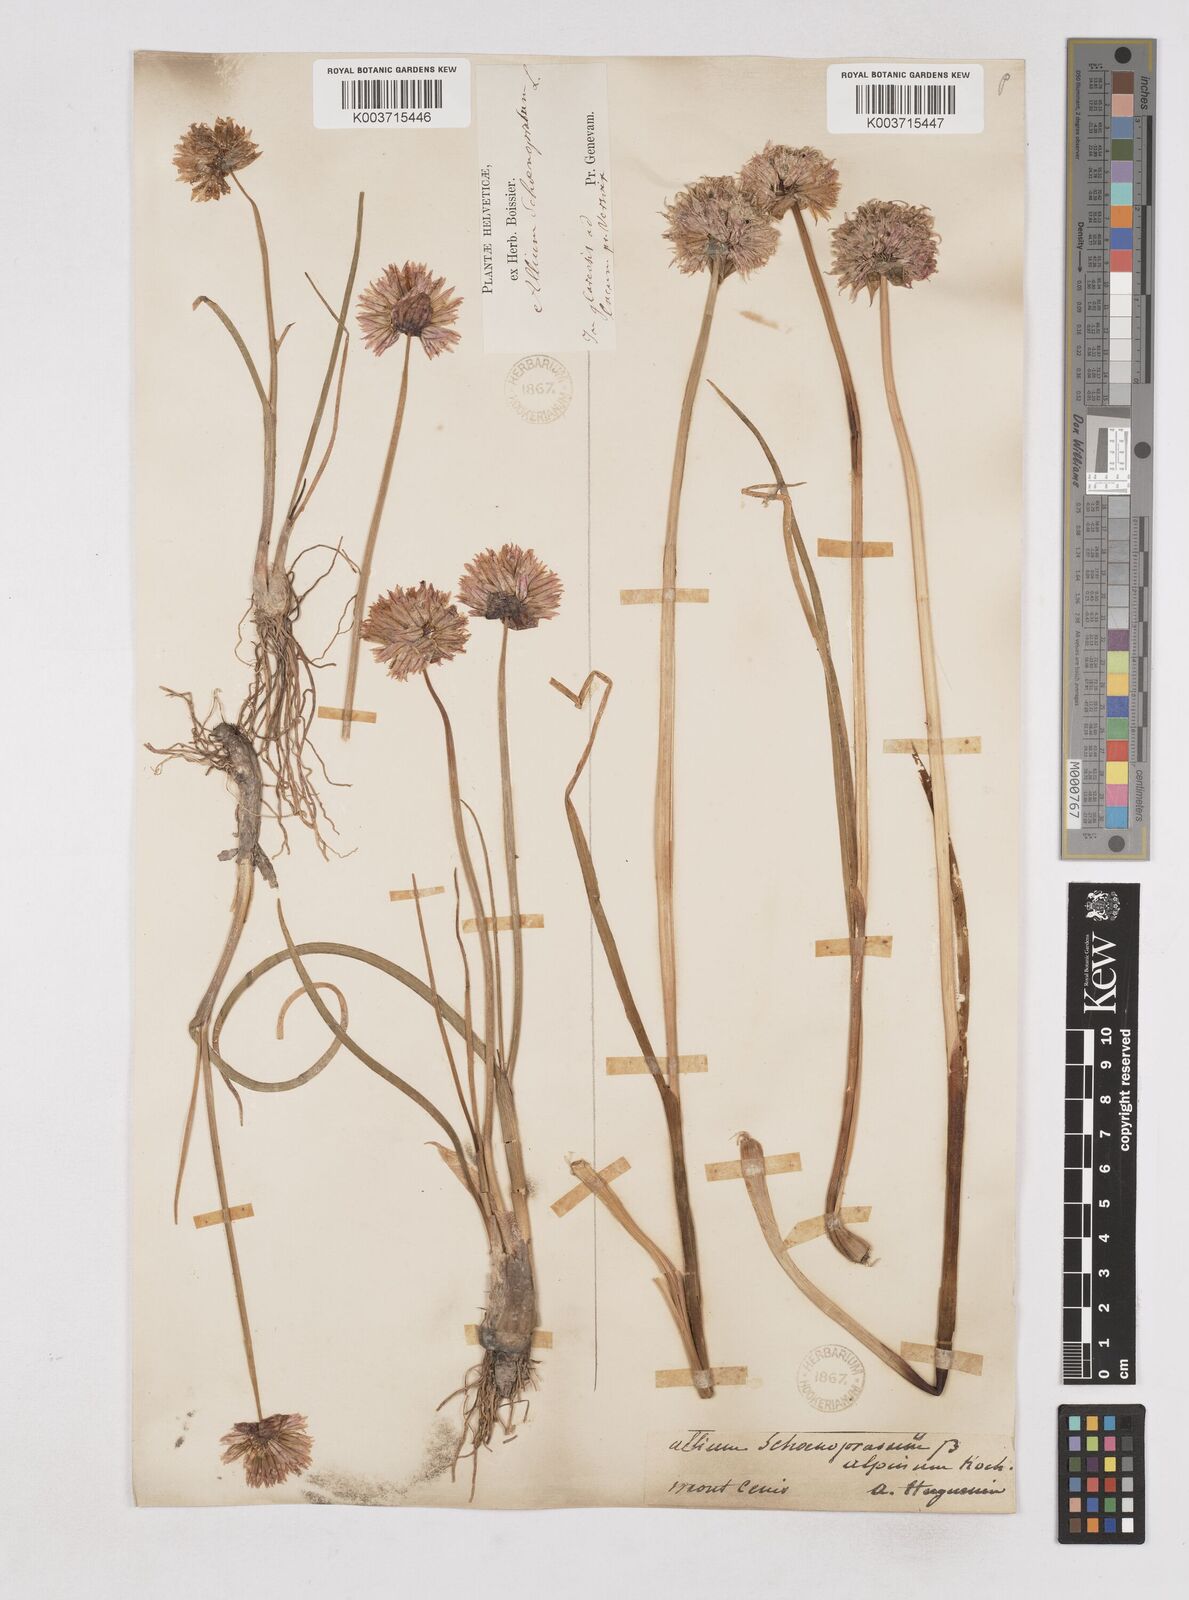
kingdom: Plantae
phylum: Tracheophyta
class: Liliopsida
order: Asparagales
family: Amaryllidaceae
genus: Allium
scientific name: Allium schoenoprasum
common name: Chives
